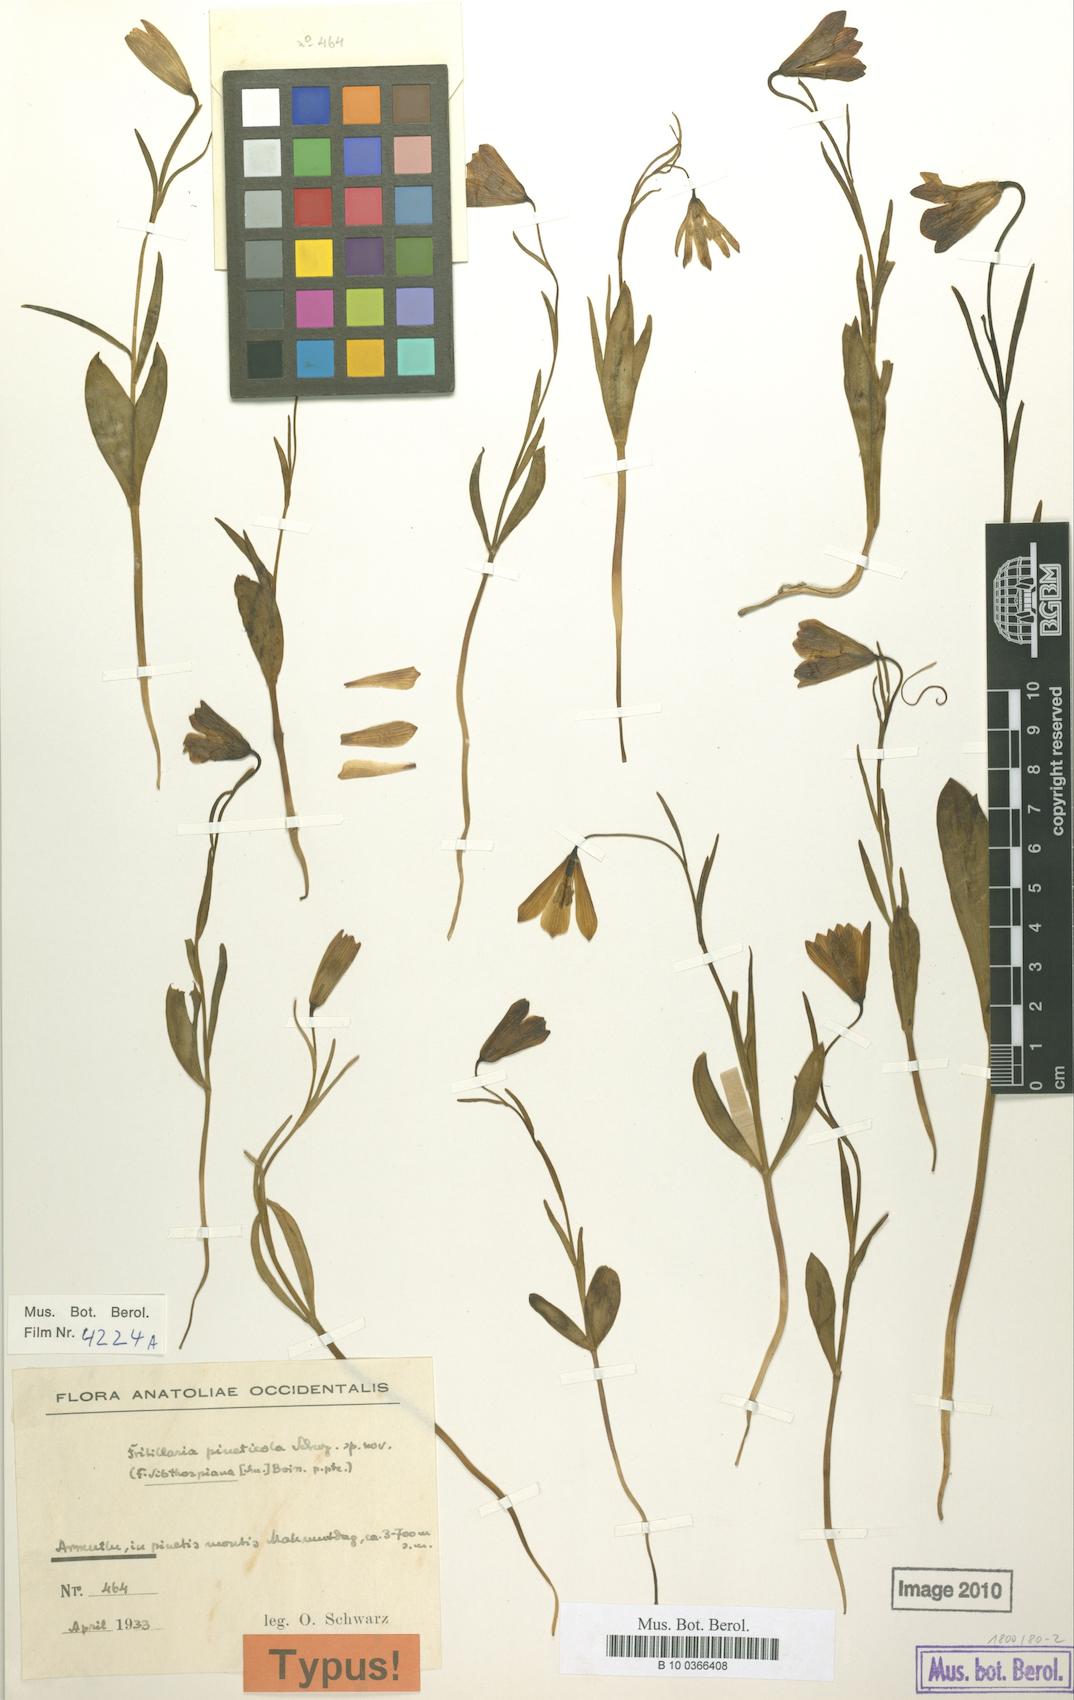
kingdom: Plantae
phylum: Tracheophyta
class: Liliopsida
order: Liliales
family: Liliaceae
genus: Fritillaria
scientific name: Fritillaria bithynica
